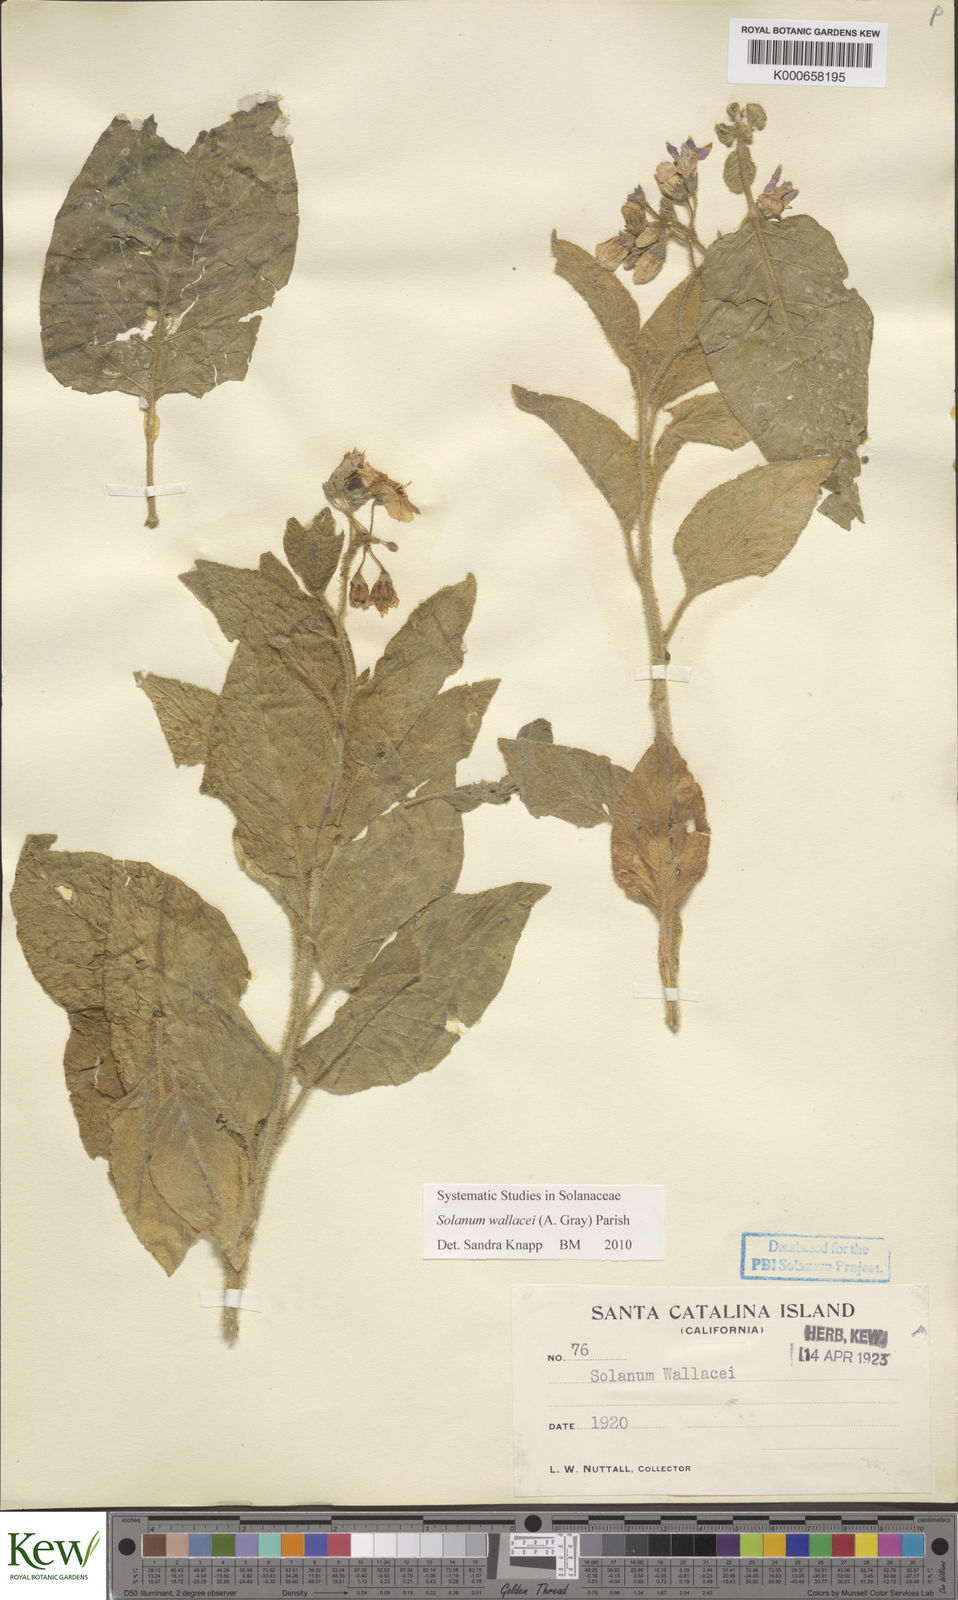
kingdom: Plantae
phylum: Tracheophyta
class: Magnoliopsida
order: Solanales
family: Solanaceae
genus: Solanum
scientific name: Solanum umbelliferum
